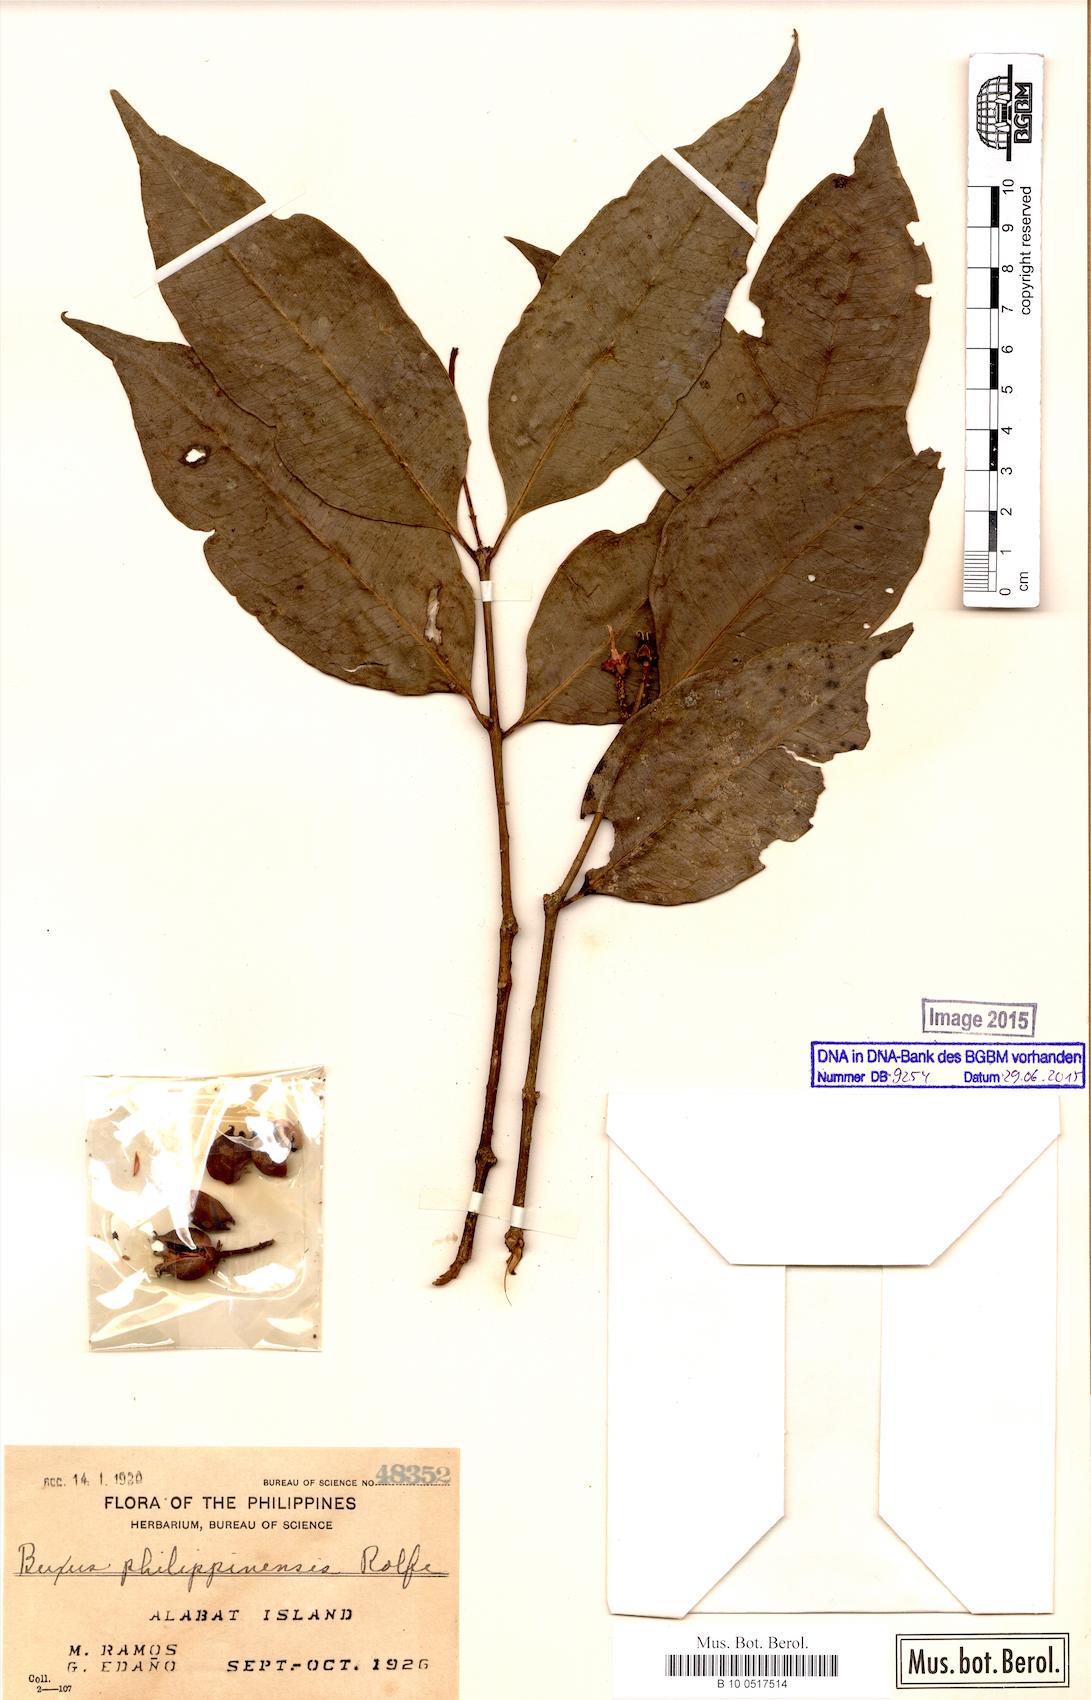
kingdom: Plantae
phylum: Tracheophyta
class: Magnoliopsida
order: Buxales
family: Buxaceae
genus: Buxus
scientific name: Buxus
